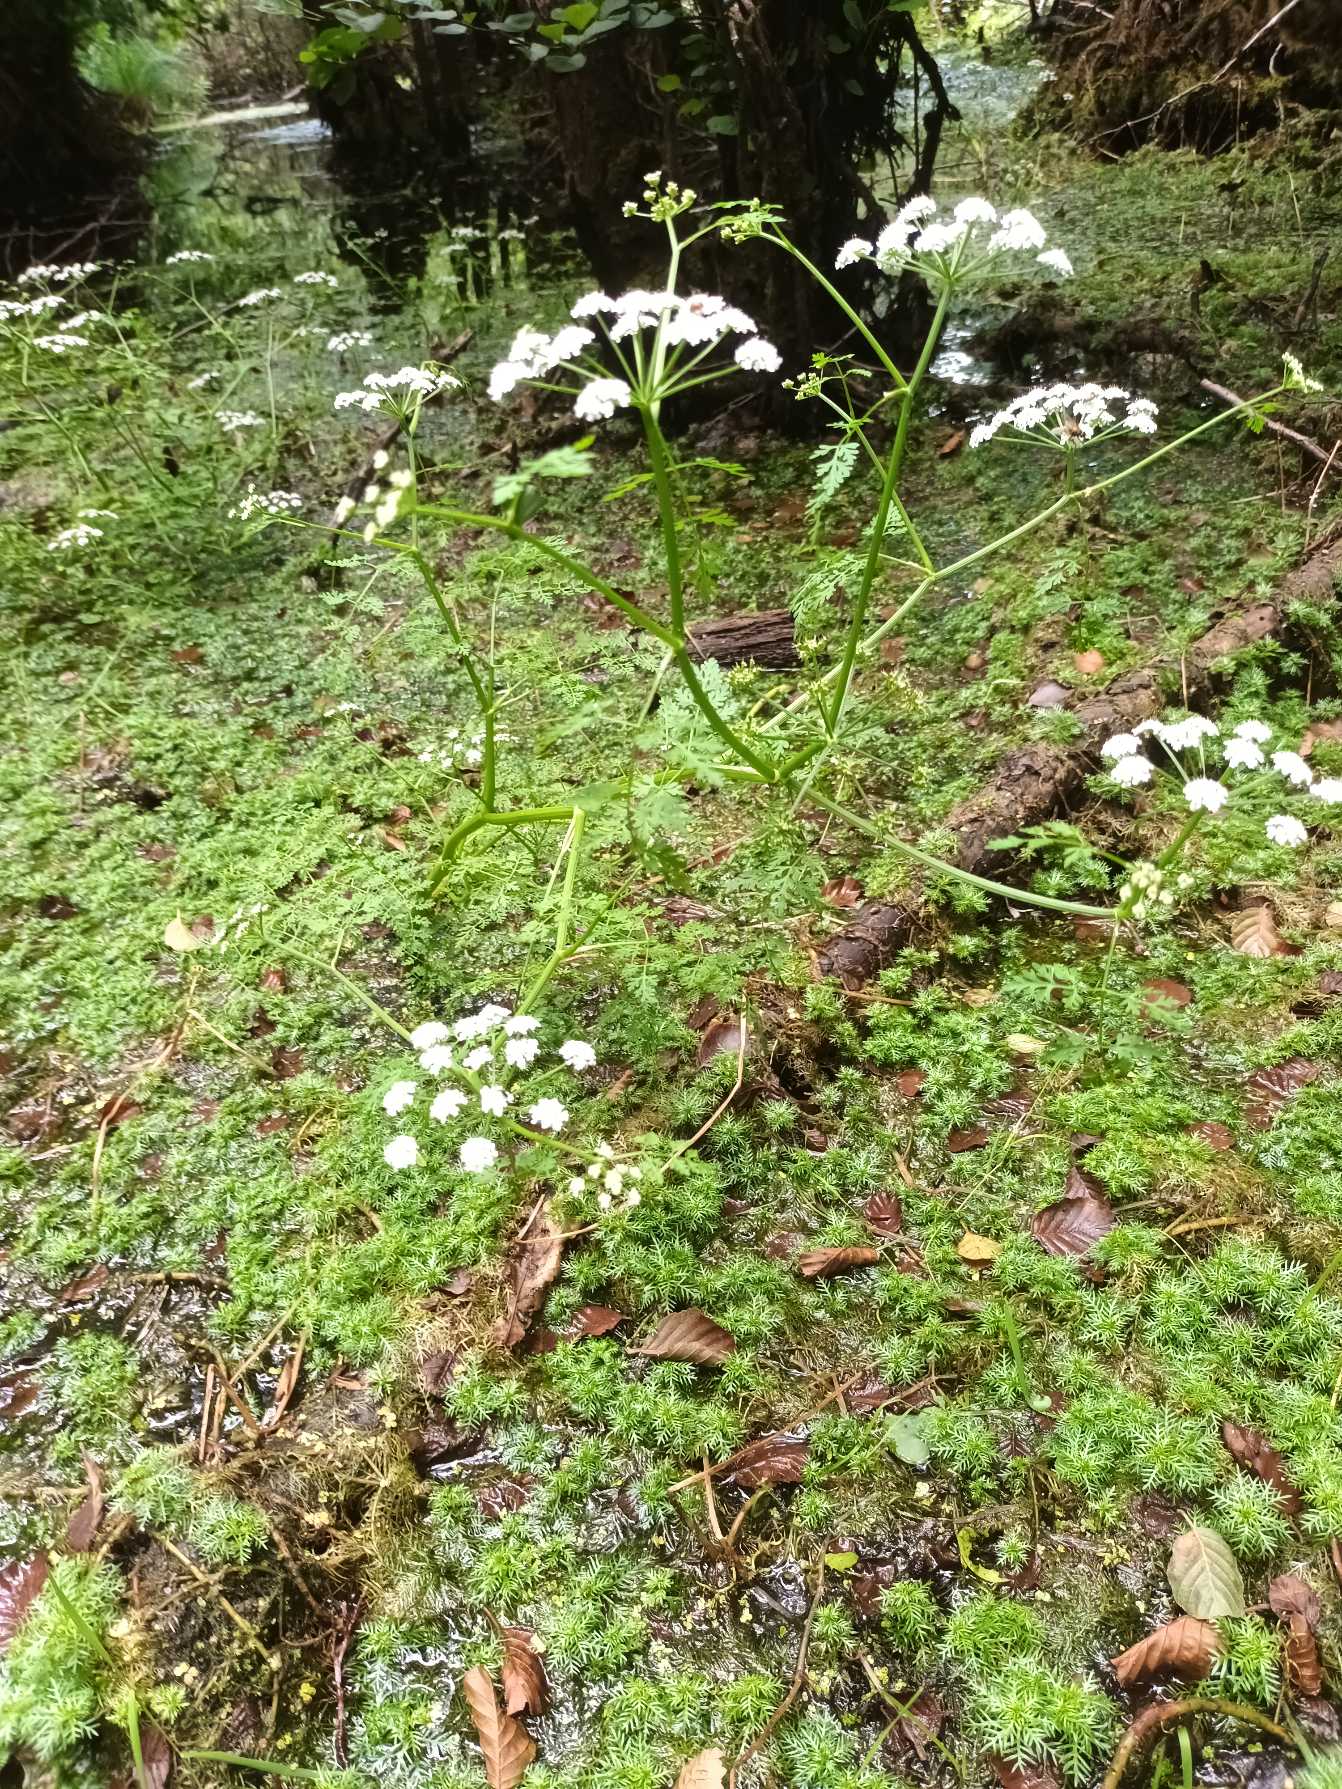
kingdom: Plantae
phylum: Tracheophyta
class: Magnoliopsida
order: Apiales
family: Apiaceae
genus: Oenanthe
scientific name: Oenanthe aquatica
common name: Billebo-klaseskærm
